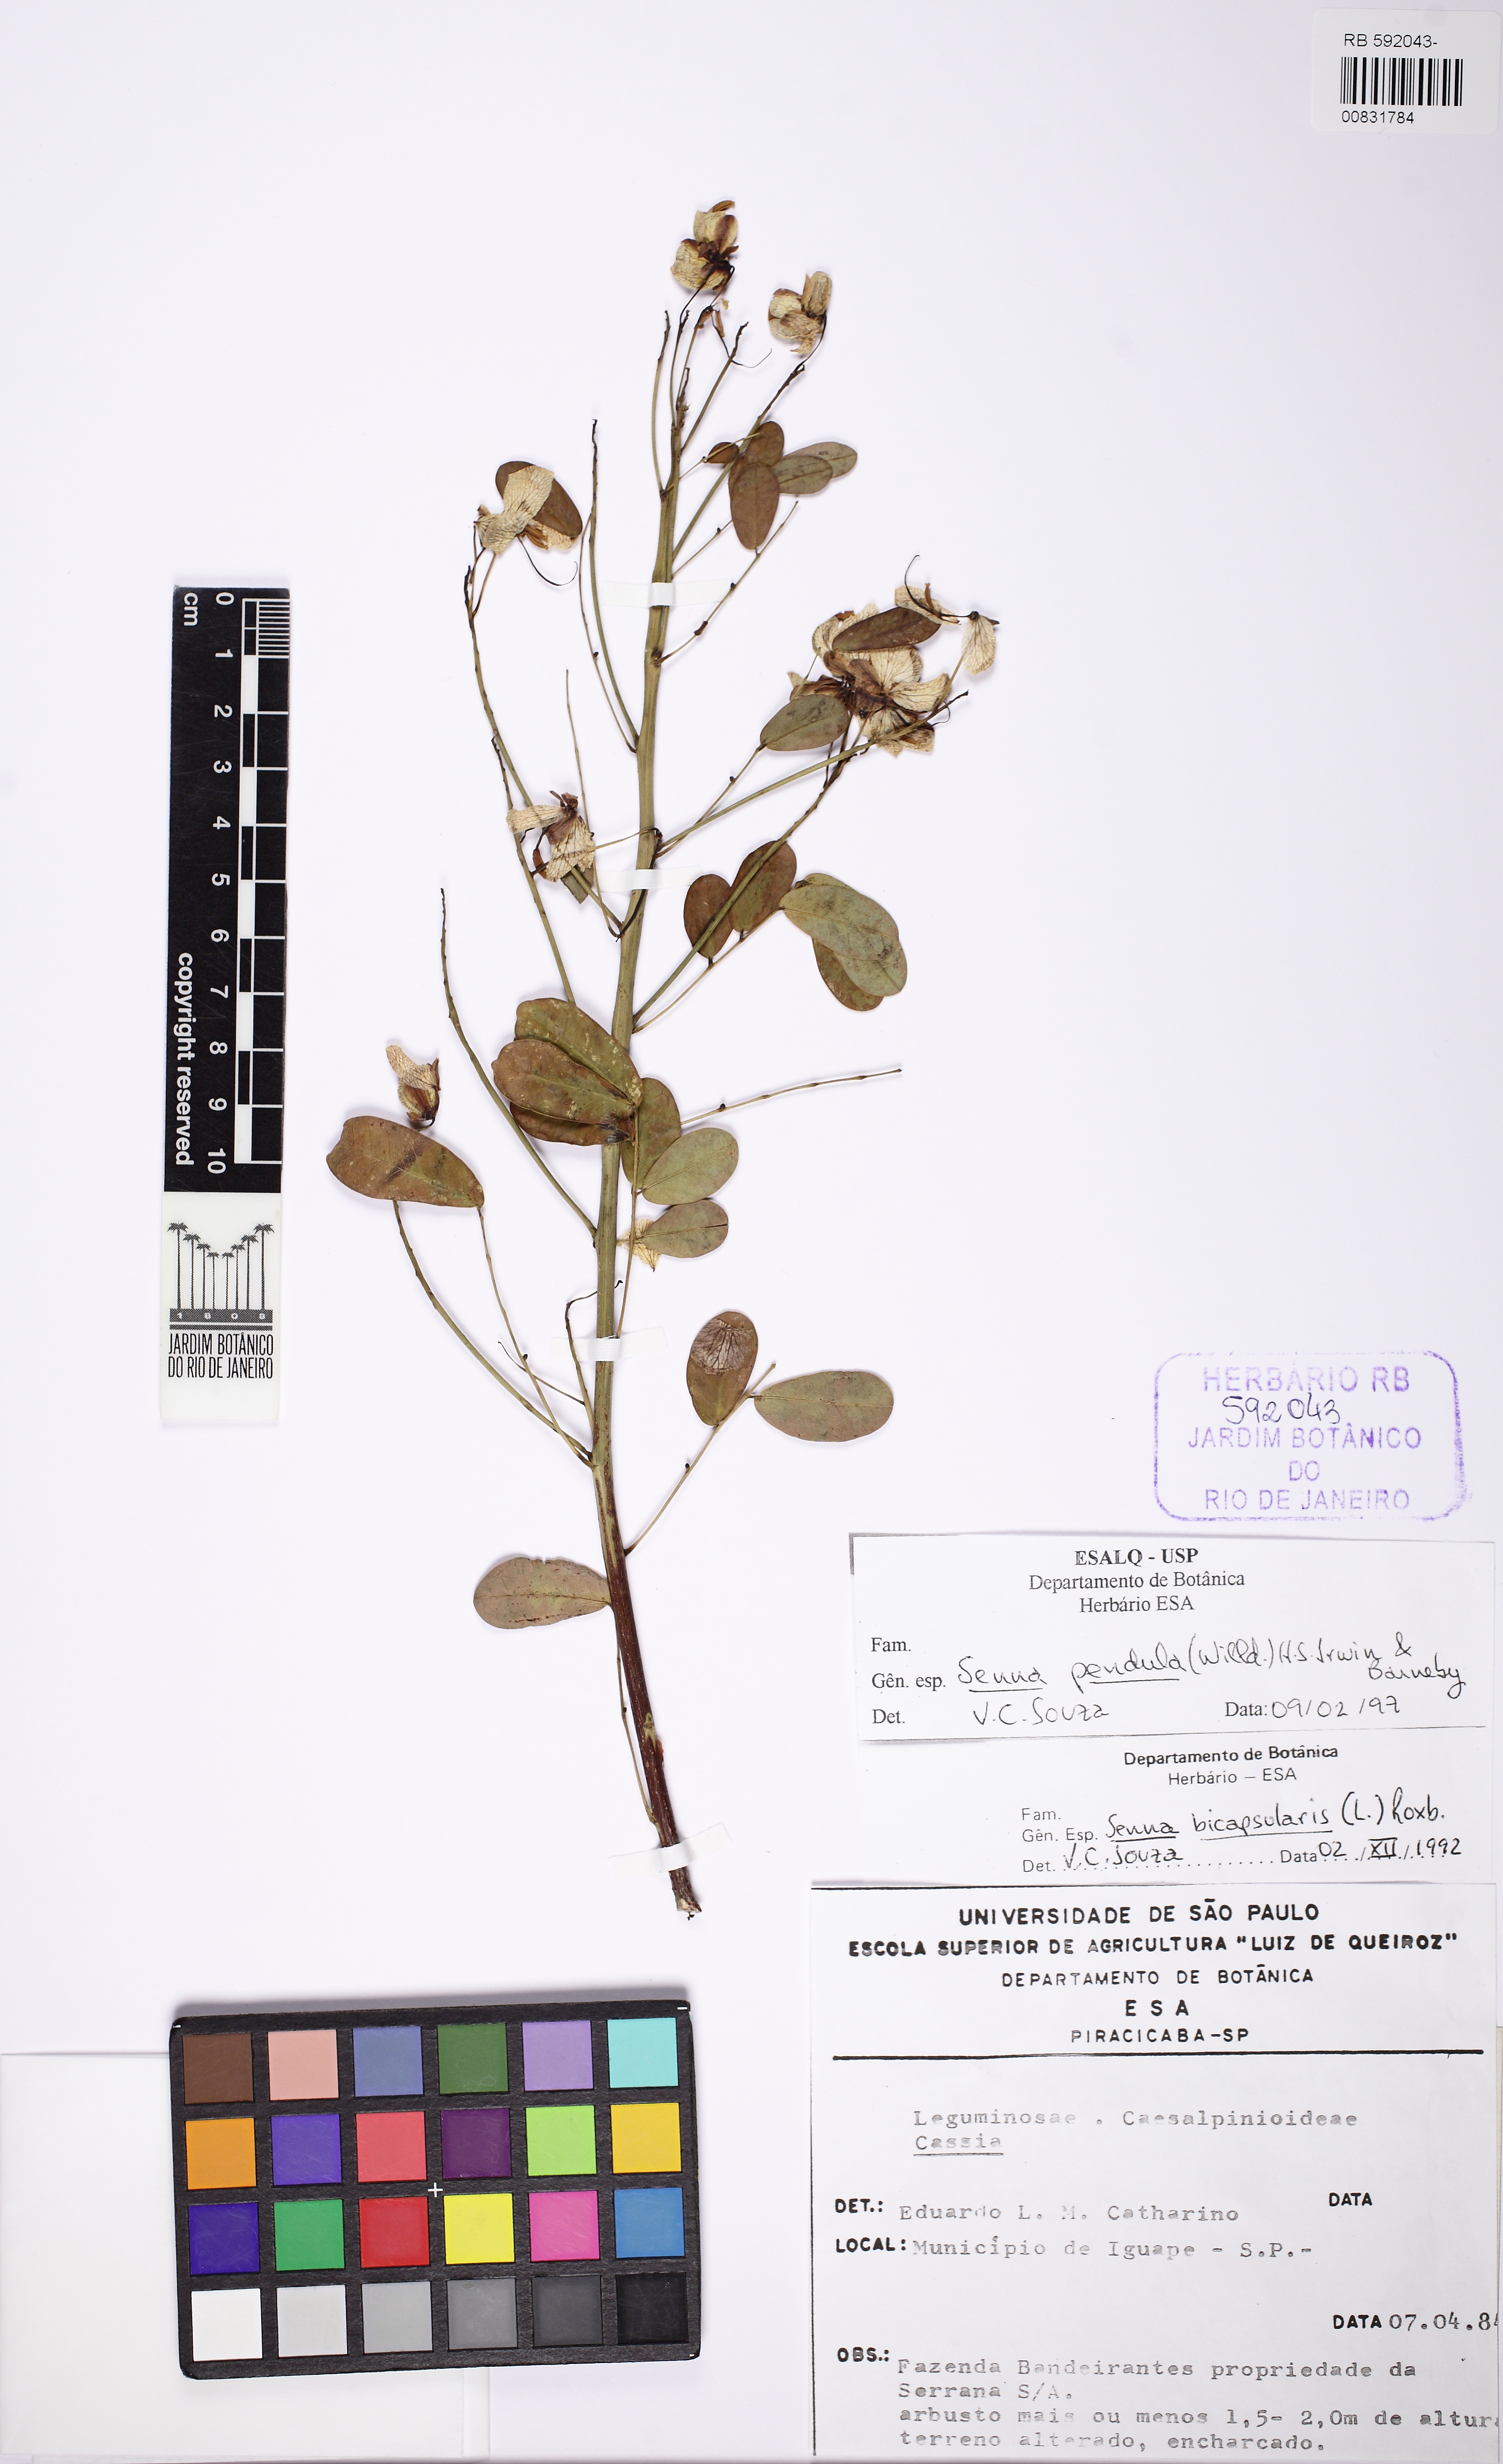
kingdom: Plantae
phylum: Tracheophyta
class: Magnoliopsida
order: Fabales
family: Fabaceae
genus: Senna
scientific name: Senna pendula
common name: Easter cassia
